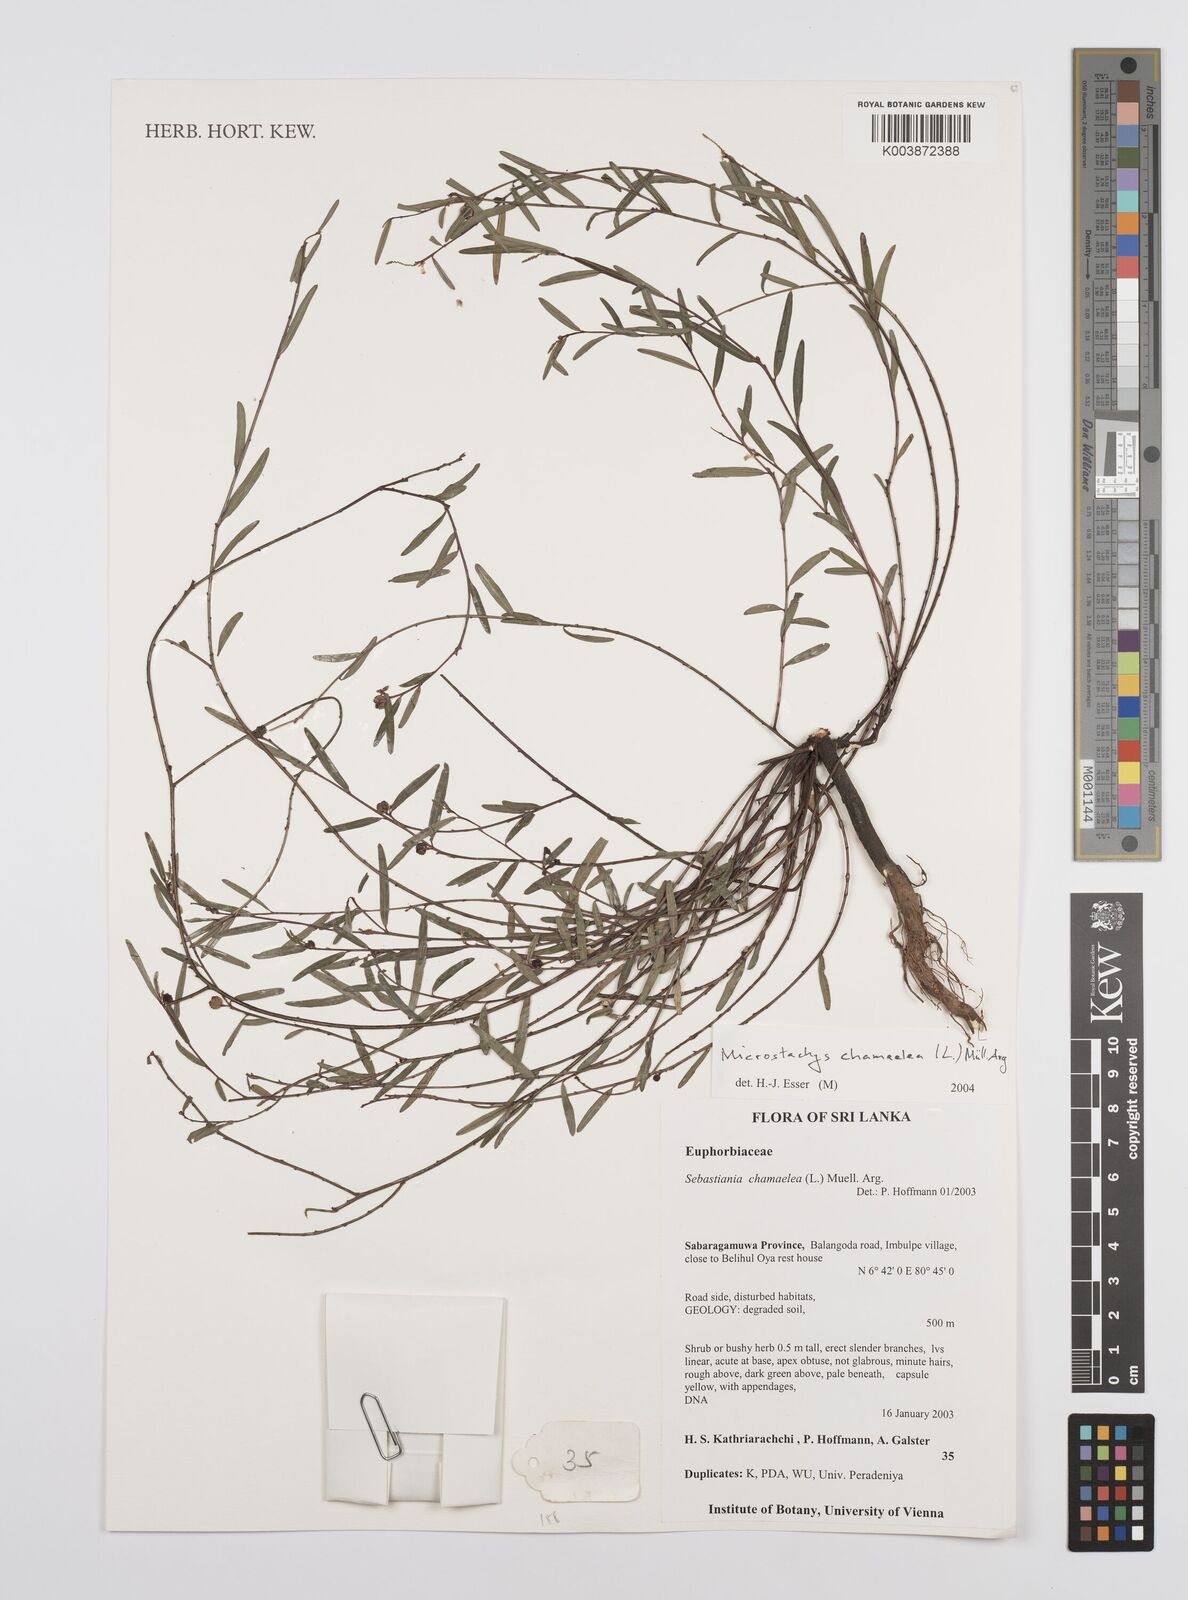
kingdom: Plantae
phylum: Tracheophyta
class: Magnoliopsida
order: Malpighiales
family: Euphorbiaceae
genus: Microstachys
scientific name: Microstachys chamaelea
